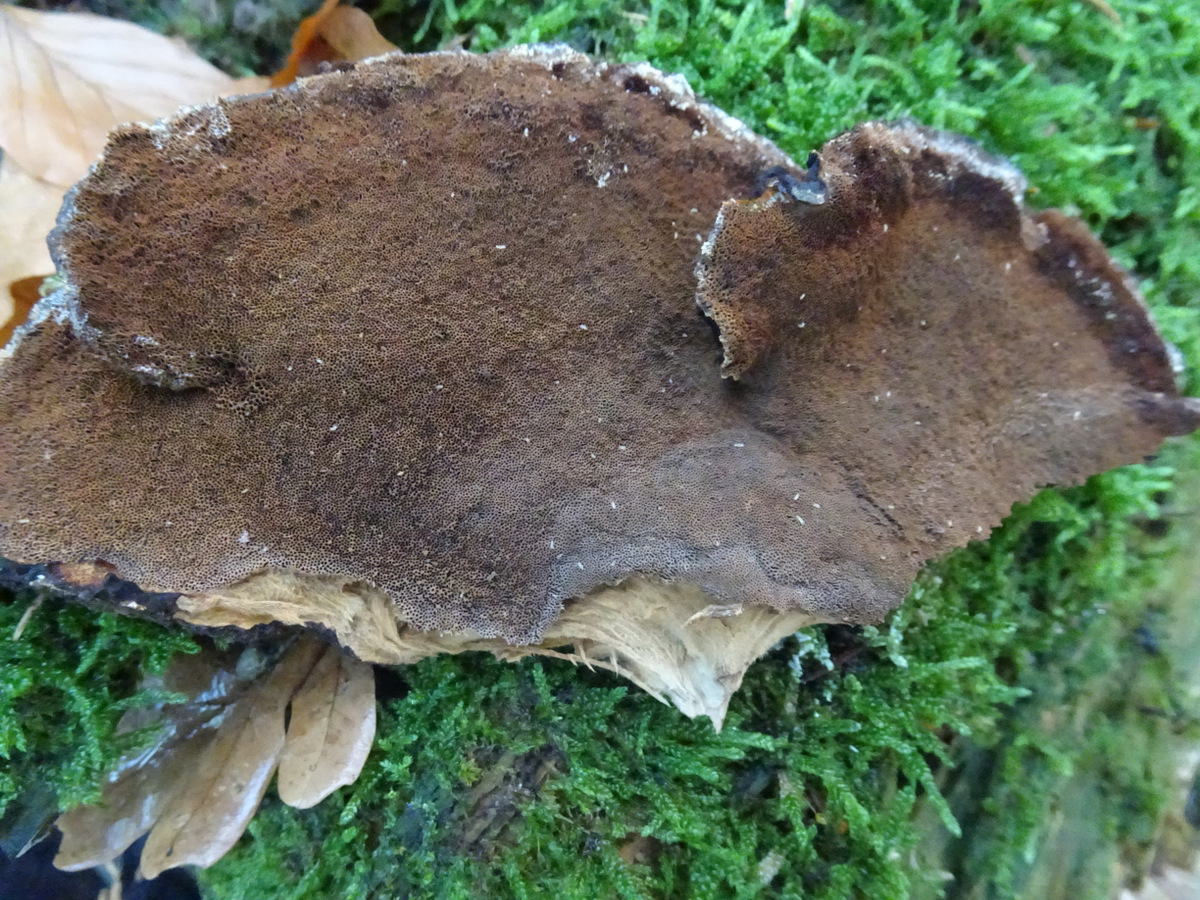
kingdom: Fungi
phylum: Basidiomycota
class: Agaricomycetes
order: Polyporales
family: Ischnodermataceae
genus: Ischnoderma
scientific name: Ischnoderma benzoinum
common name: gran-tjæreporesvamp
